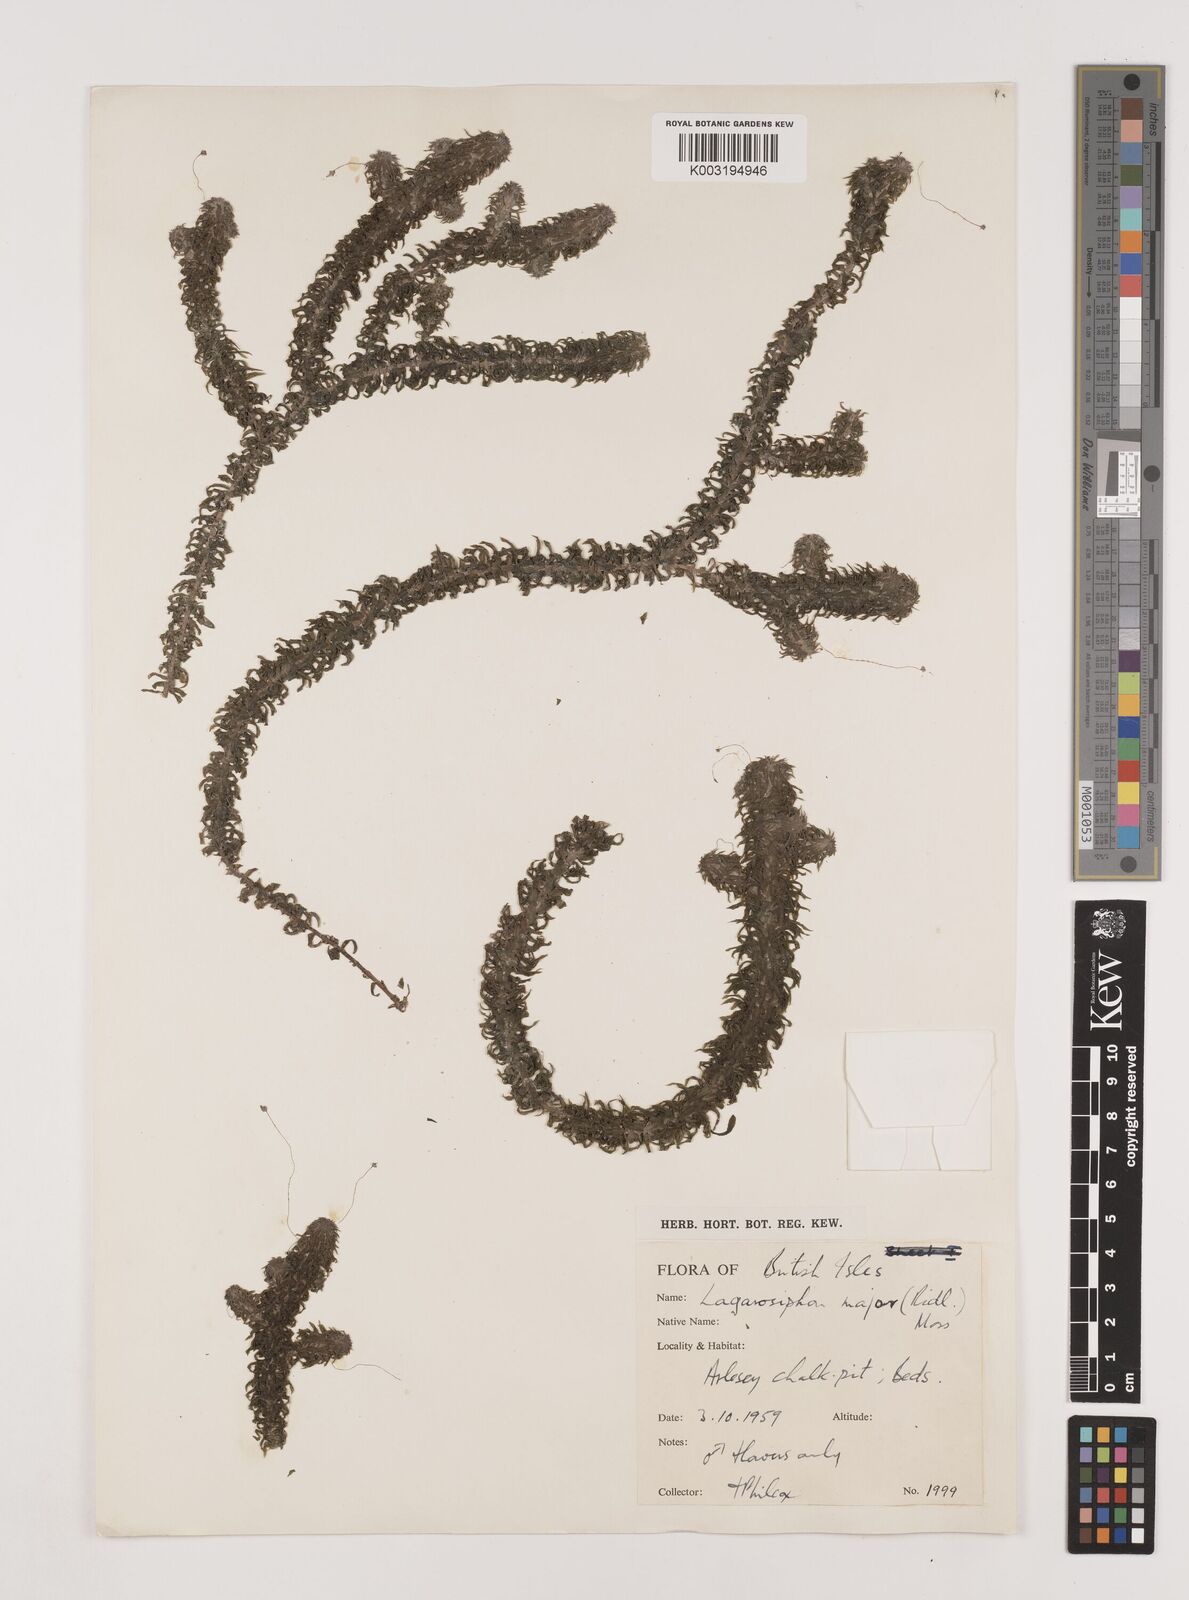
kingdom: Plantae
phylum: Tracheophyta
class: Liliopsida
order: Alismatales
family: Hydrocharitaceae
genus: Lagarosiphon
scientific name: Lagarosiphon major
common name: Curly waterweed
